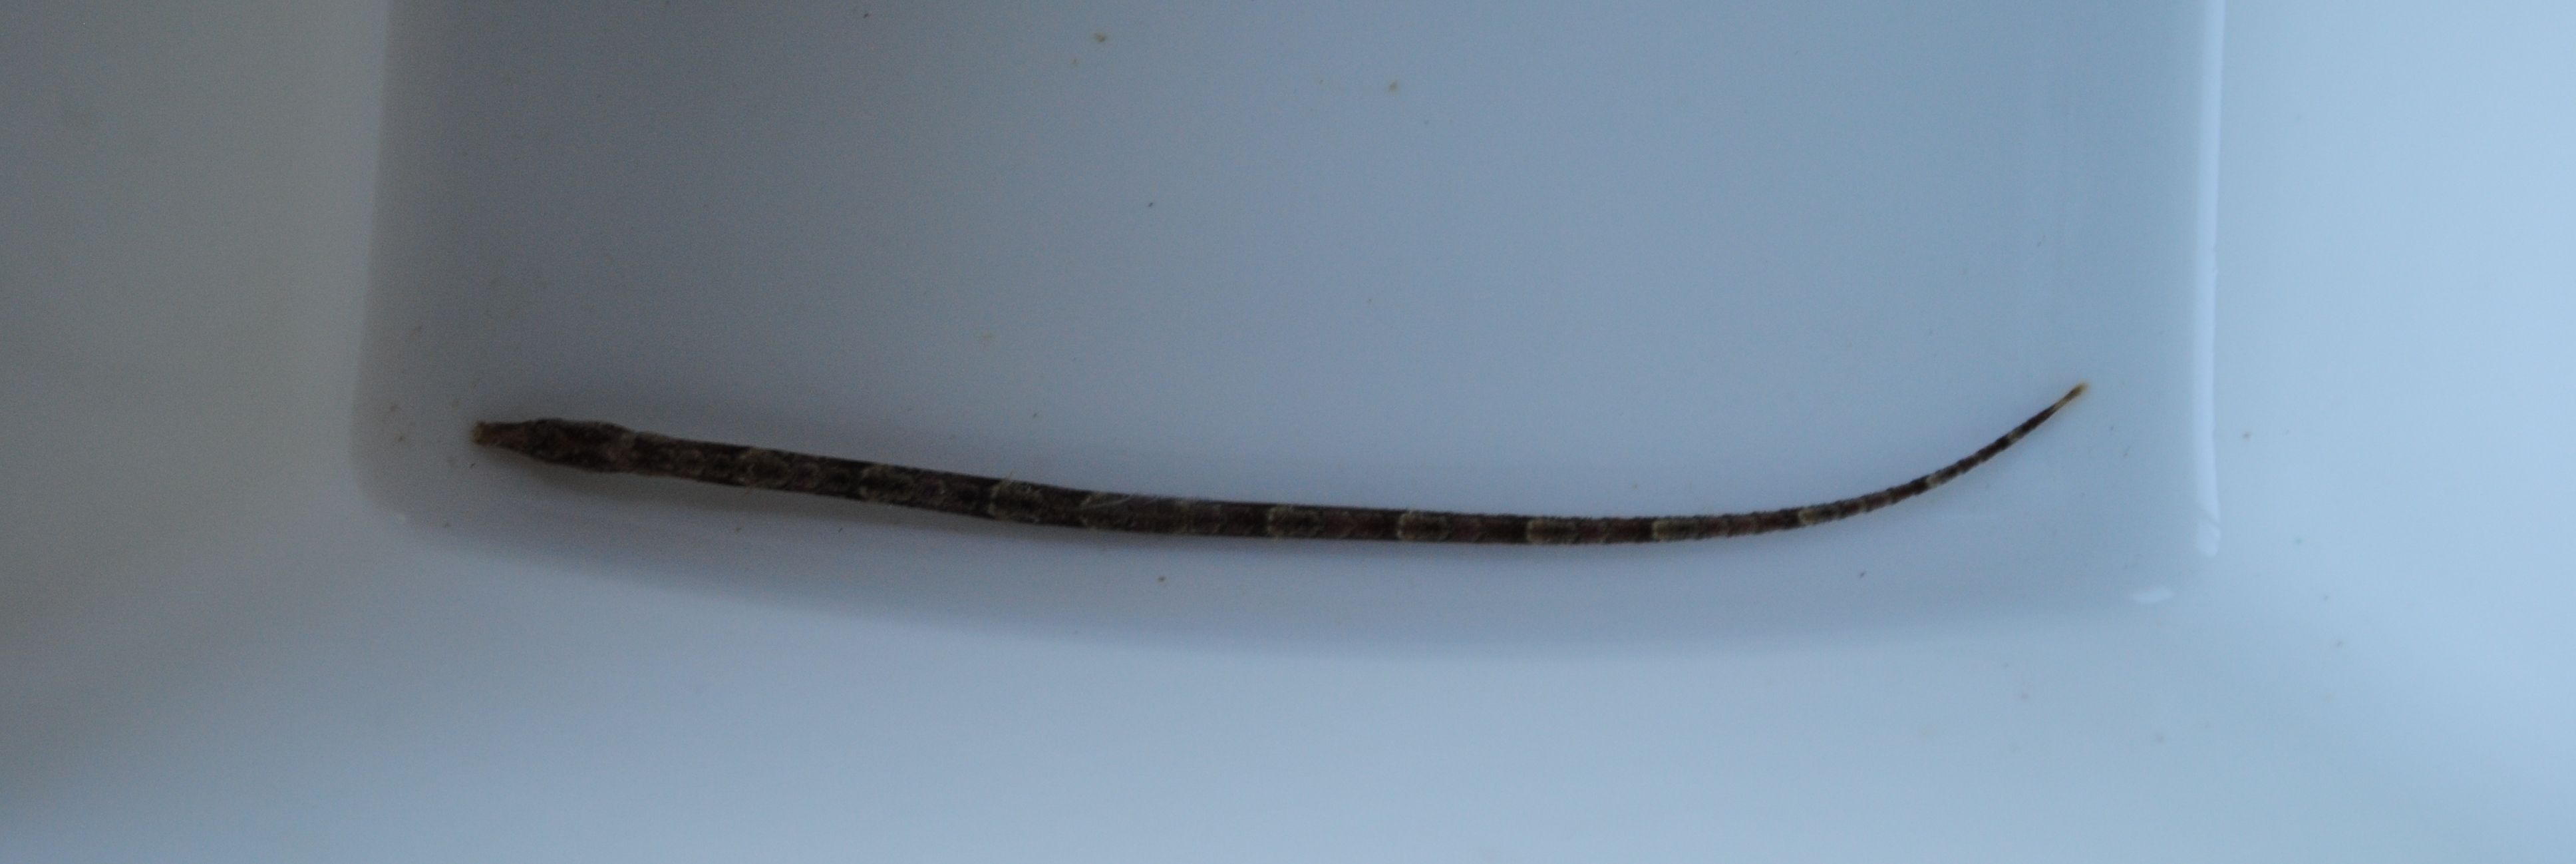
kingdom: Animalia
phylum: Chordata
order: Syngnathiformes
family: Syngnathidae
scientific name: Syngnathidae
